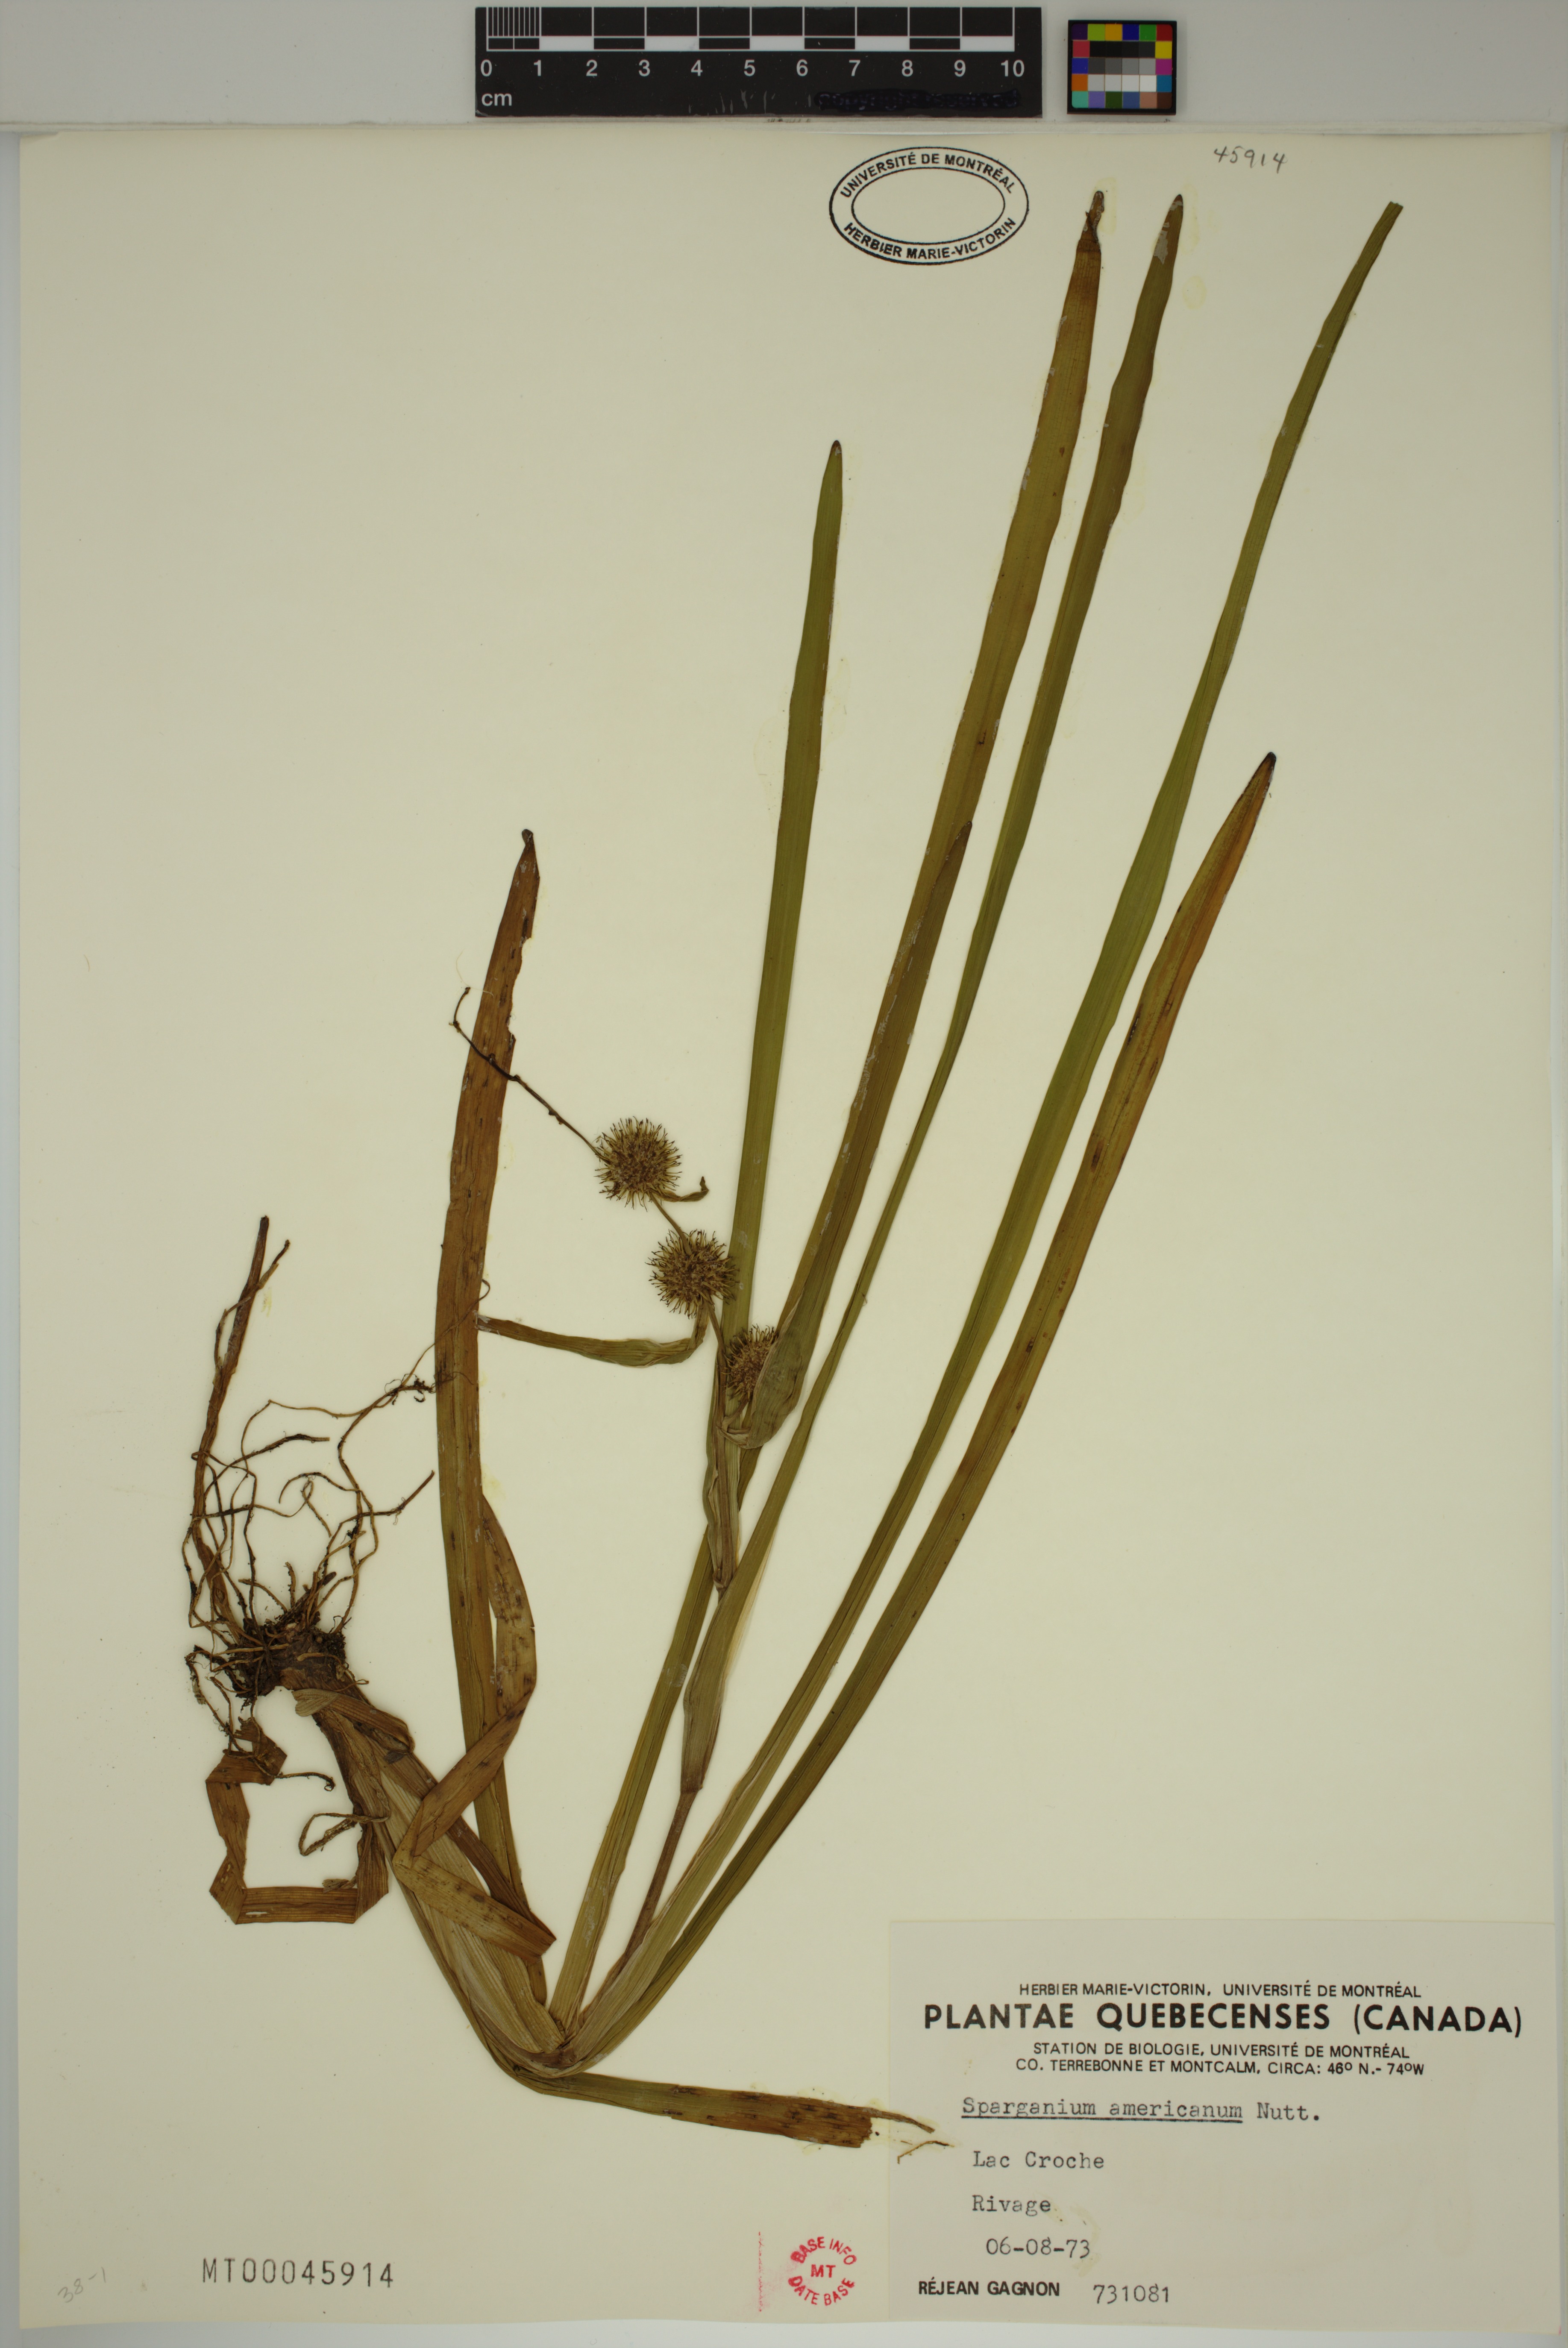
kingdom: Plantae
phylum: Tracheophyta
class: Liliopsida
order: Poales
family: Typhaceae
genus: Sparganium
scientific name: Sparganium americanum
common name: American burreed
